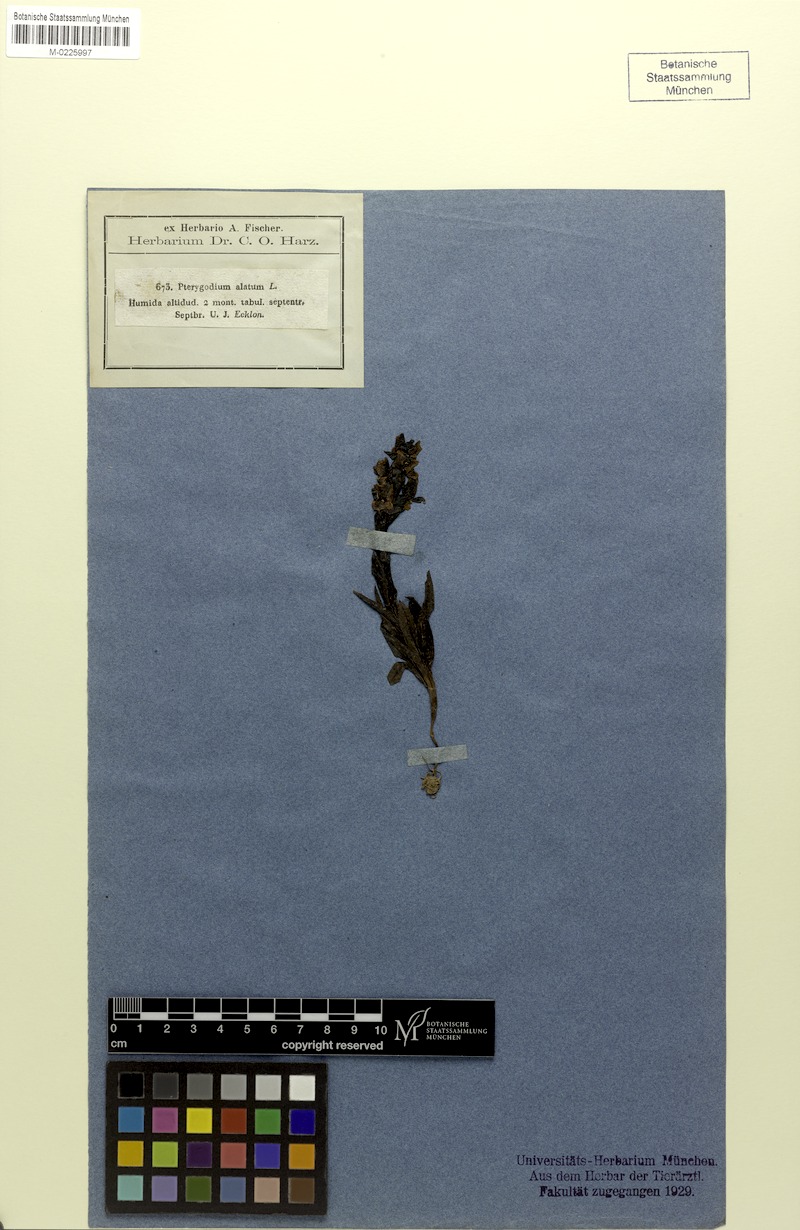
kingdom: Plantae
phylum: Tracheophyta
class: Liliopsida
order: Asparagales
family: Orchidaceae
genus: Pterygodium
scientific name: Pterygodium alatum
